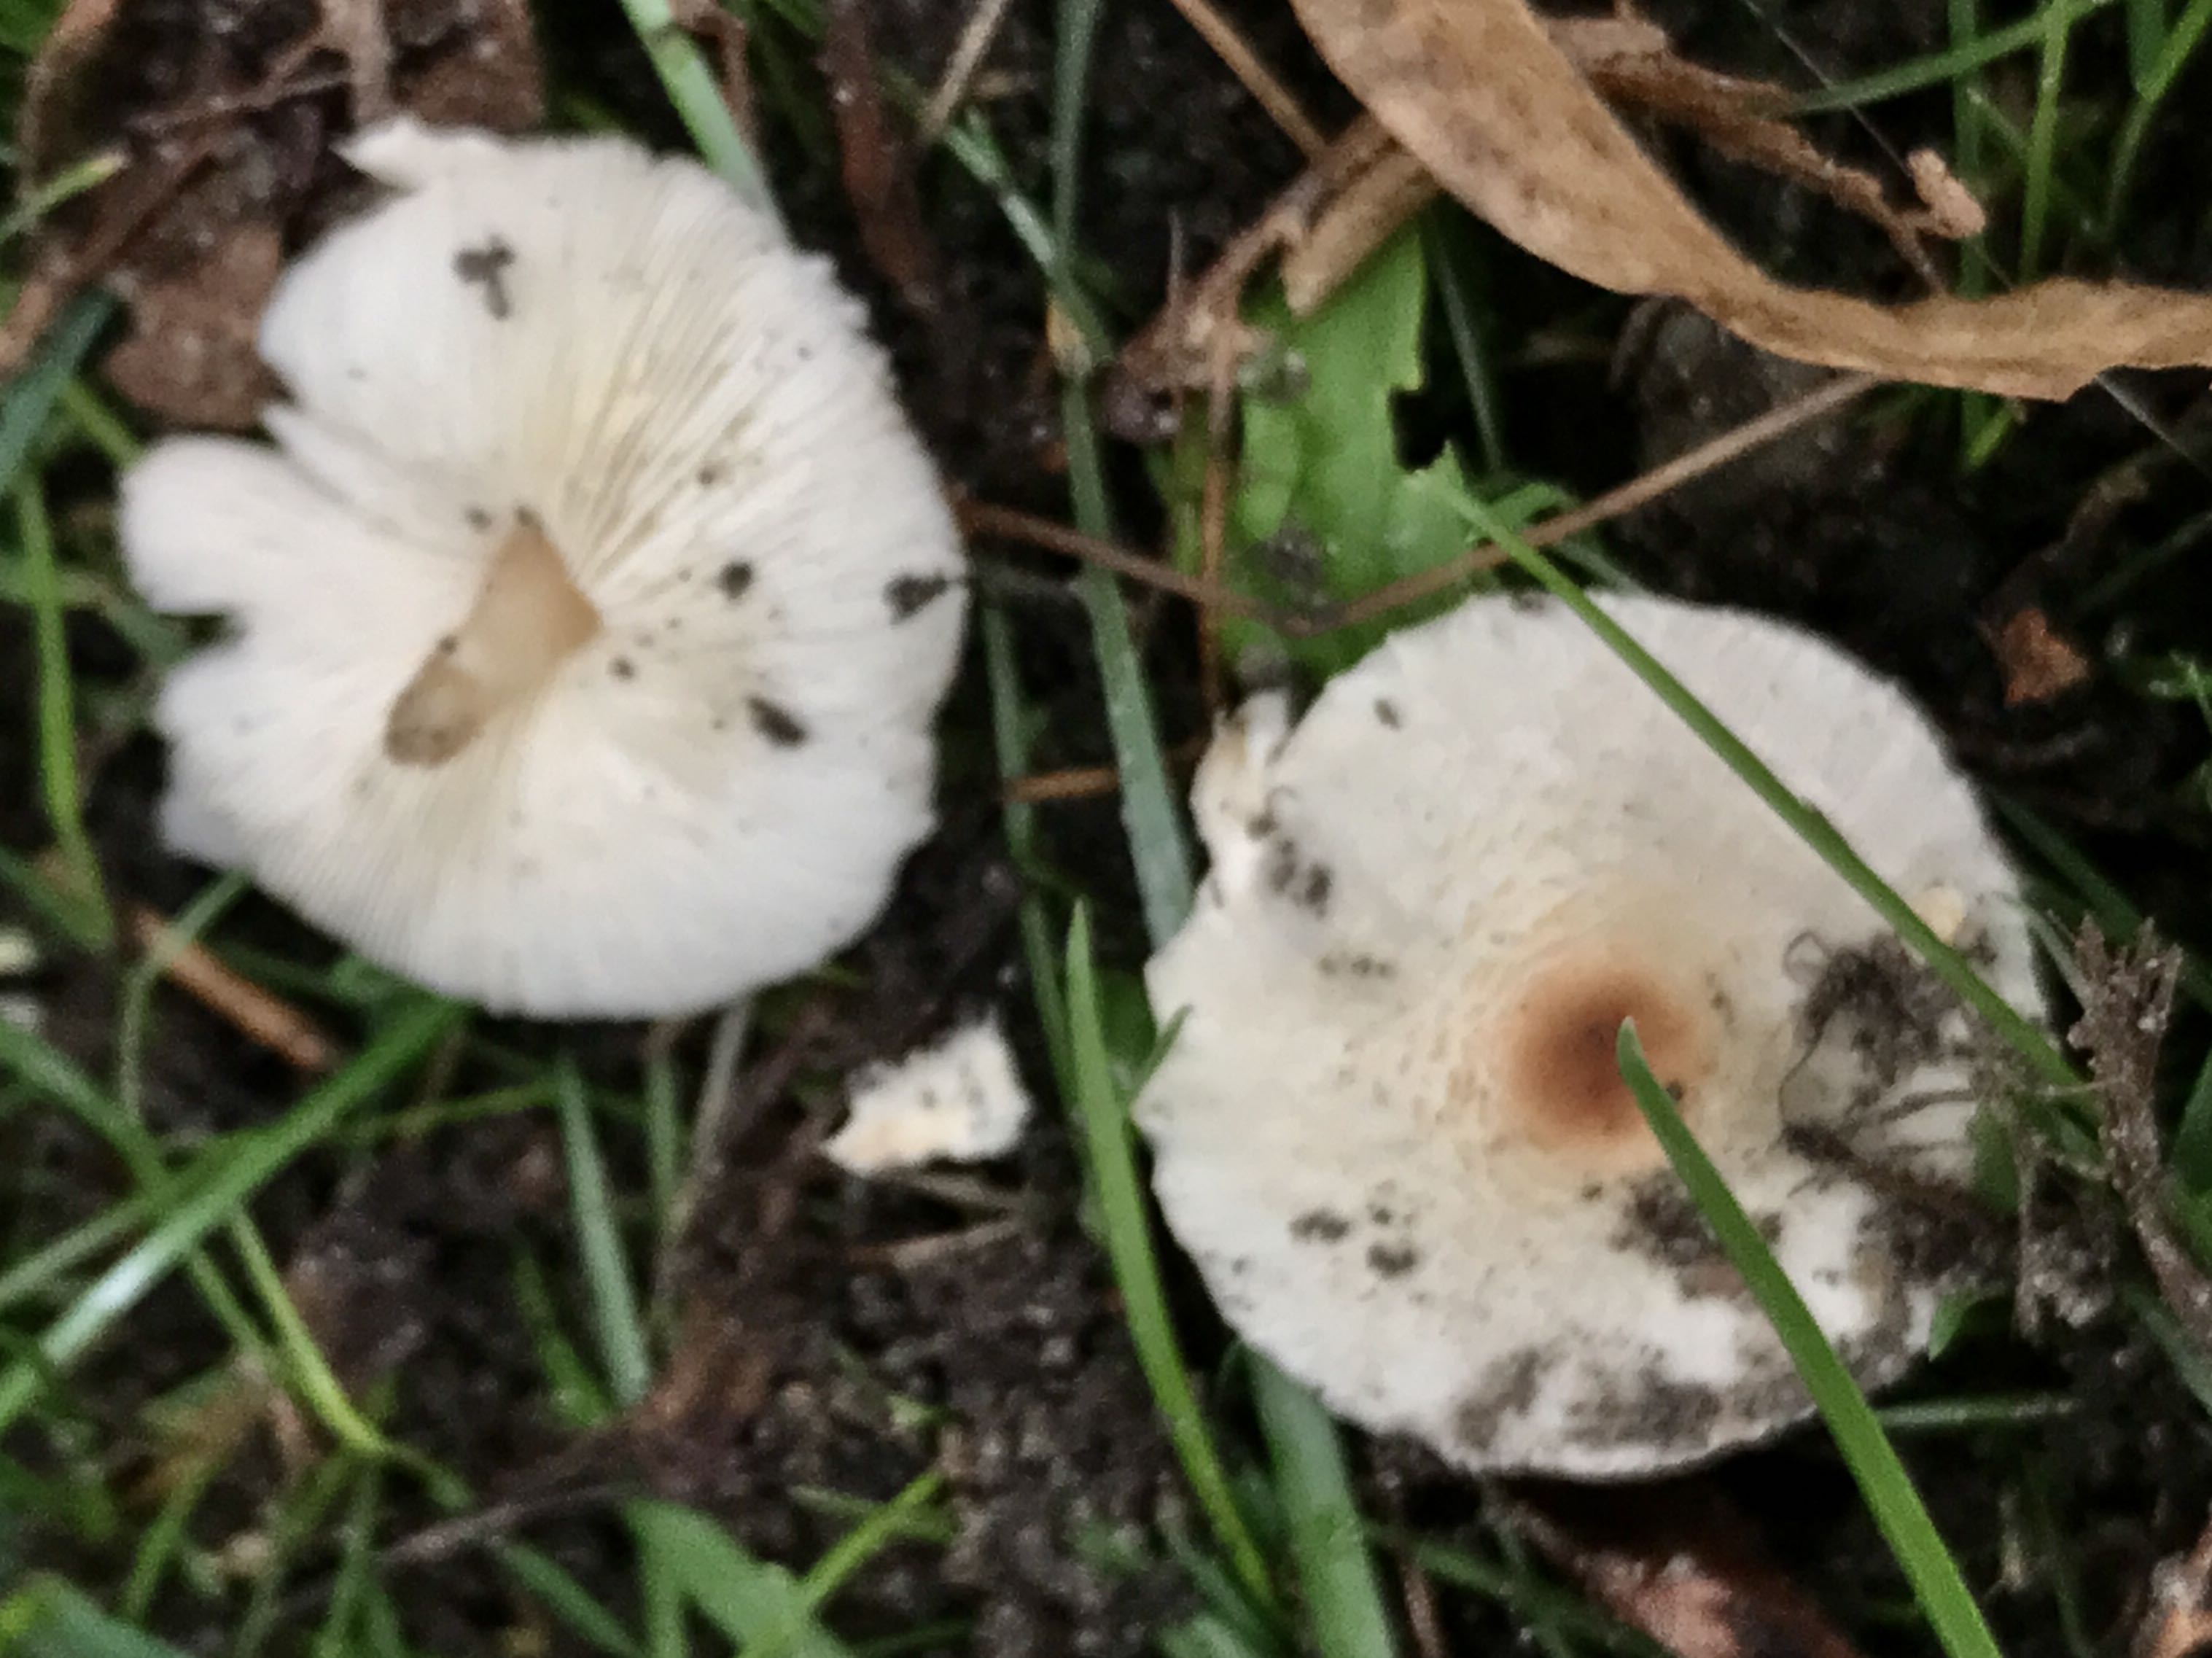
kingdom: Fungi
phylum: Basidiomycota
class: Agaricomycetes
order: Agaricales
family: Agaricaceae
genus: Lepiota
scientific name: Lepiota cristata
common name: stinkende parasolhat
